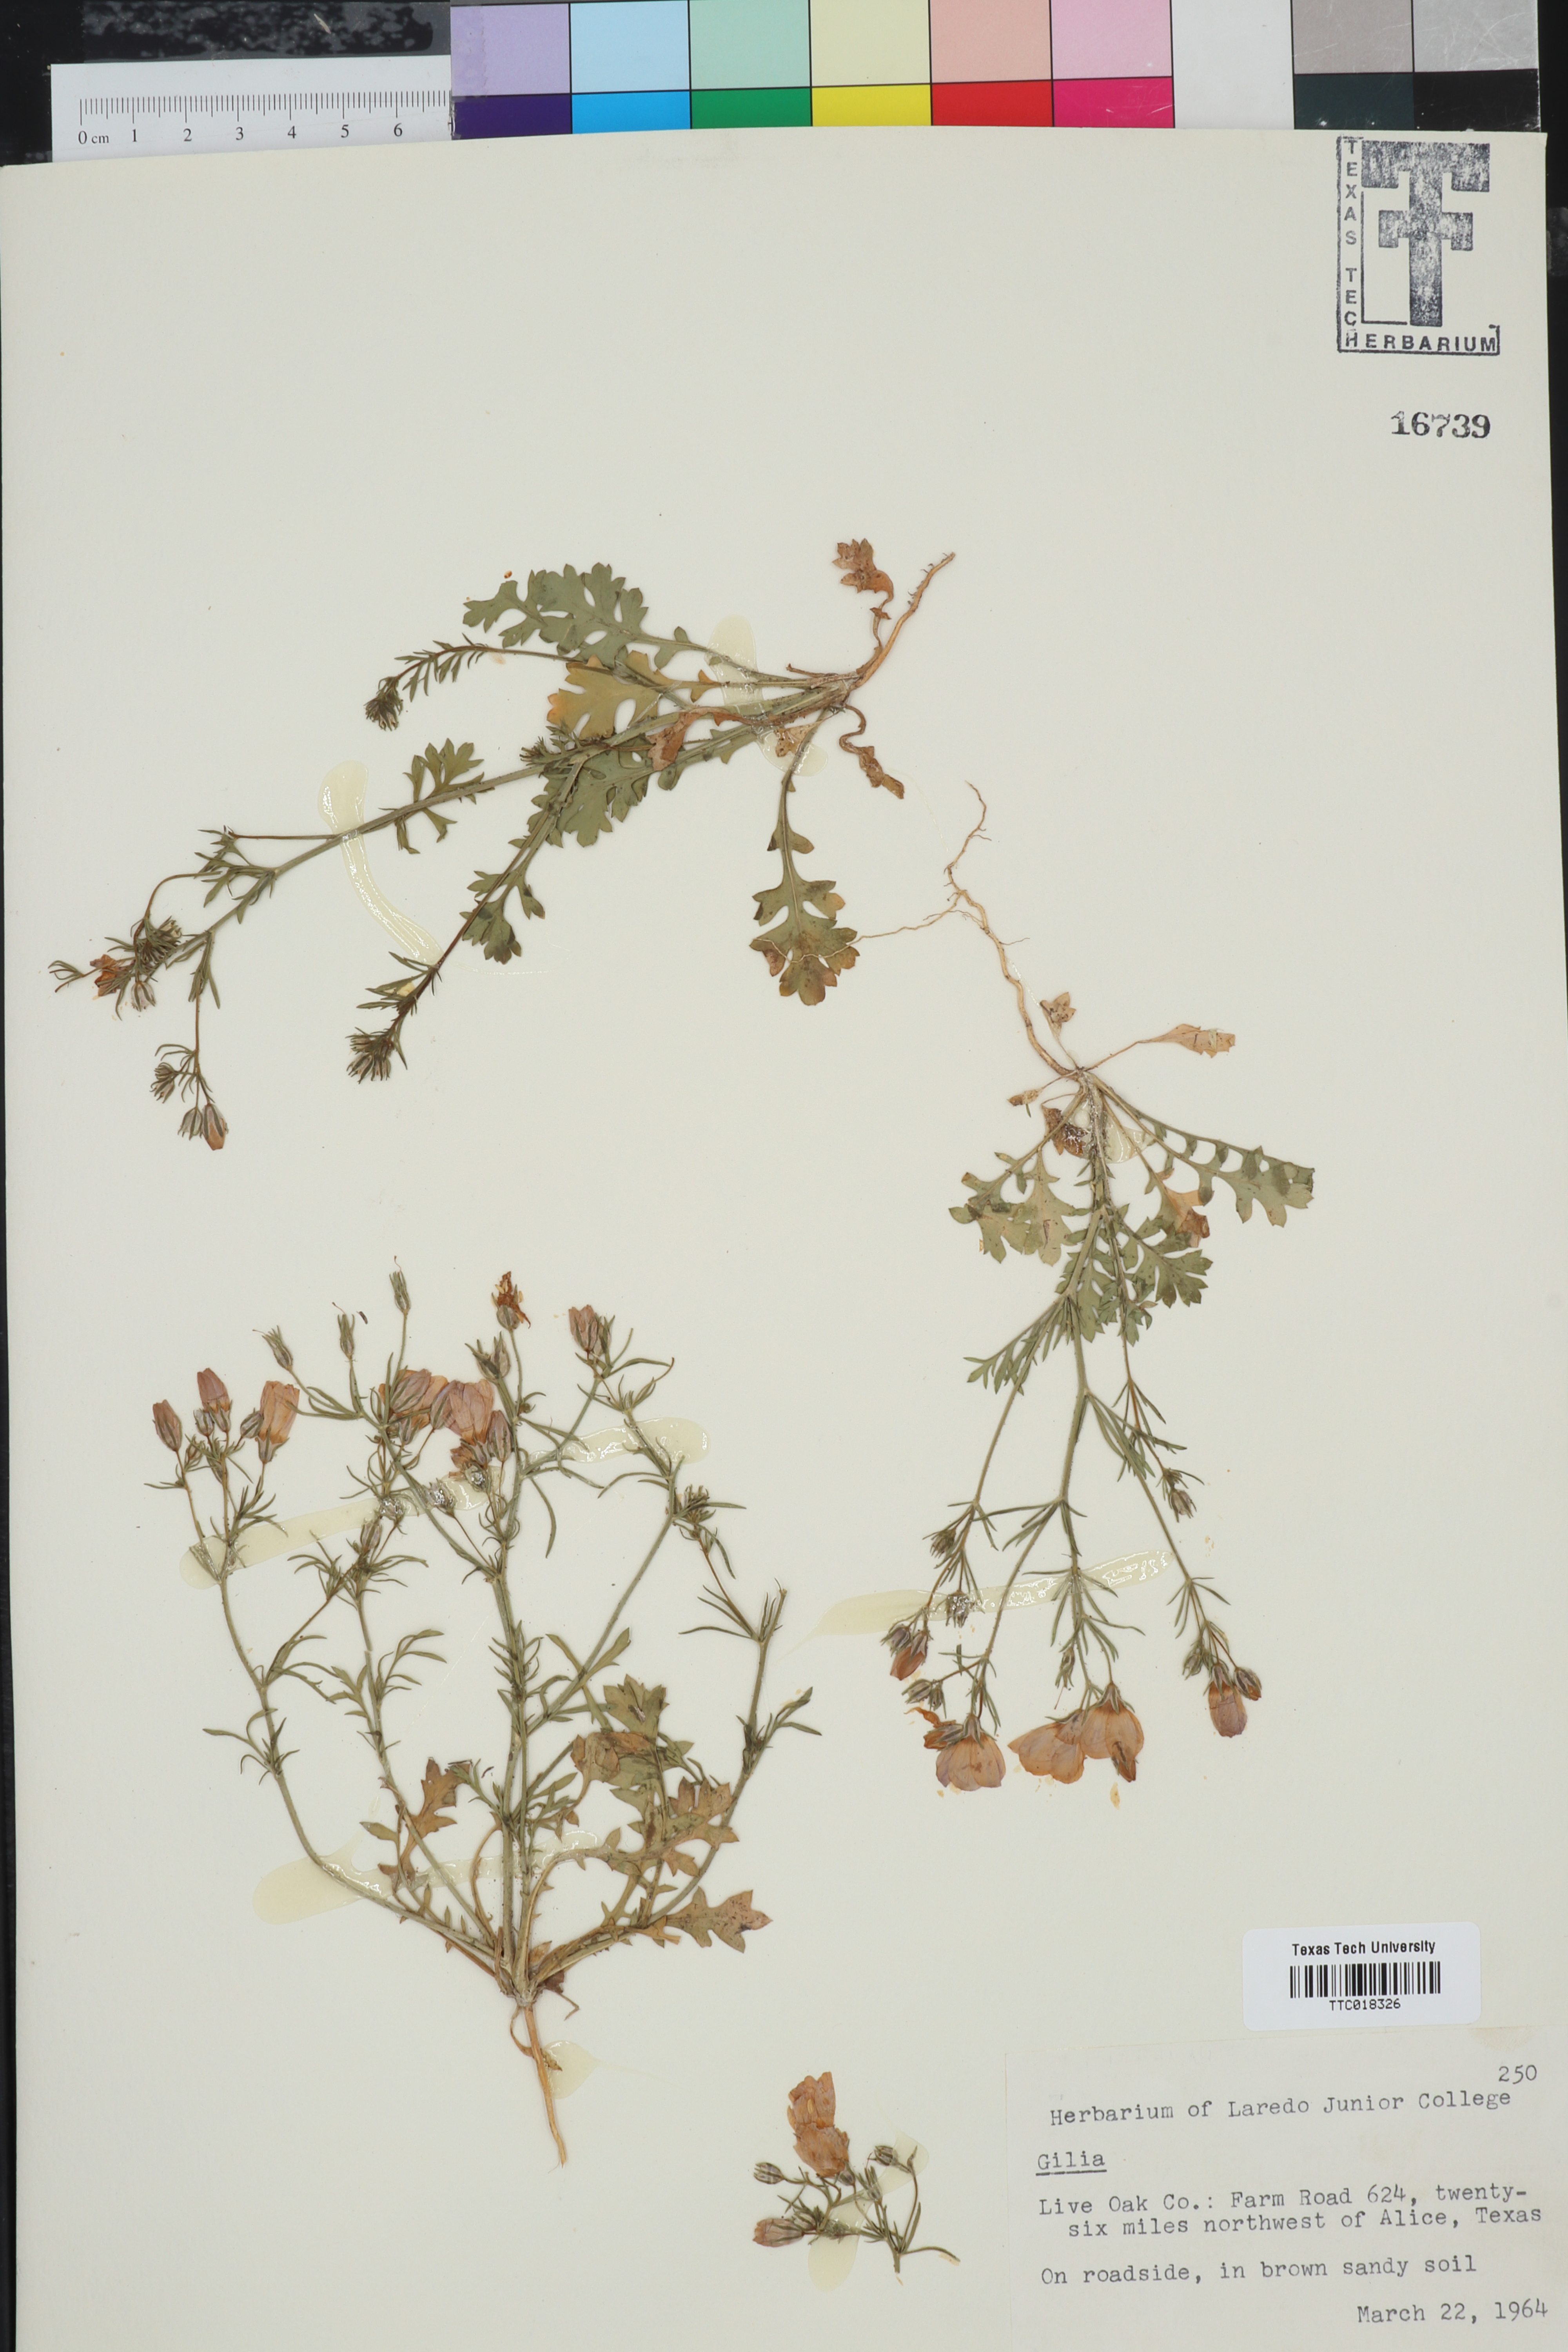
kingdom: Plantae
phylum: Tracheophyta
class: Magnoliopsida
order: Ericales
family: Polemoniaceae
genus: Gilia
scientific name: Gilia
